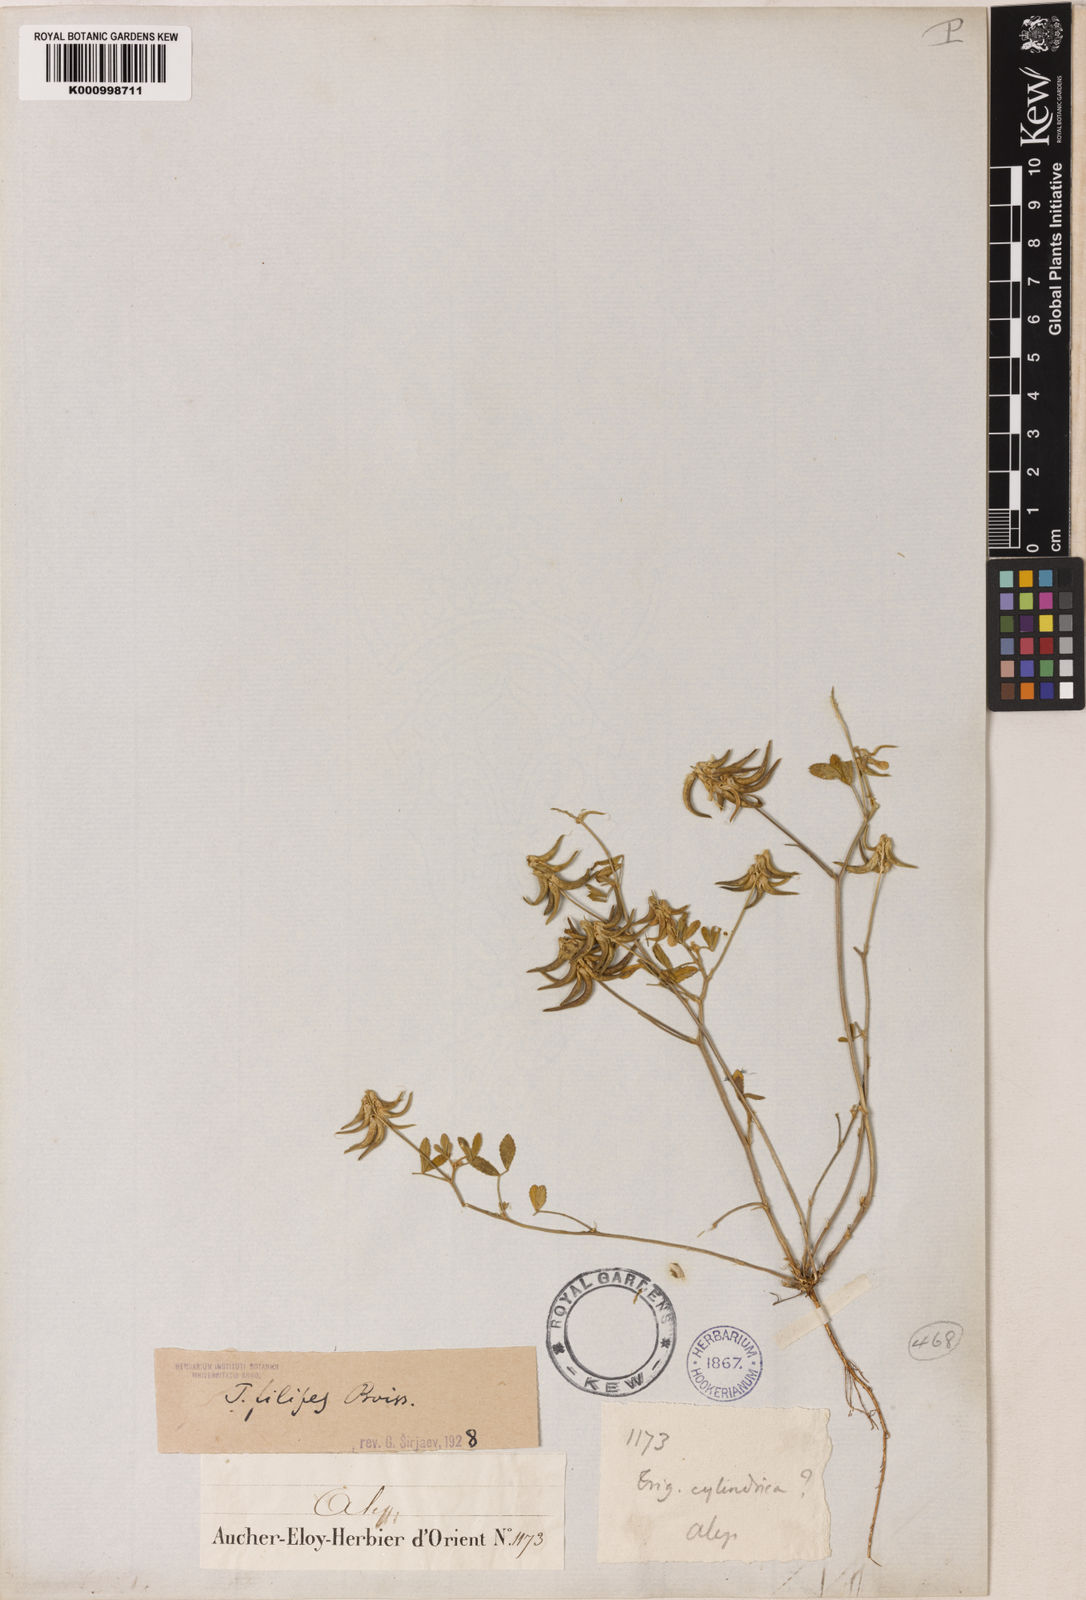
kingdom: Plantae
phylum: Tracheophyta
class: Magnoliopsida
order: Fabales
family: Fabaceae
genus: Trigonella
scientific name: Trigonella filipes
